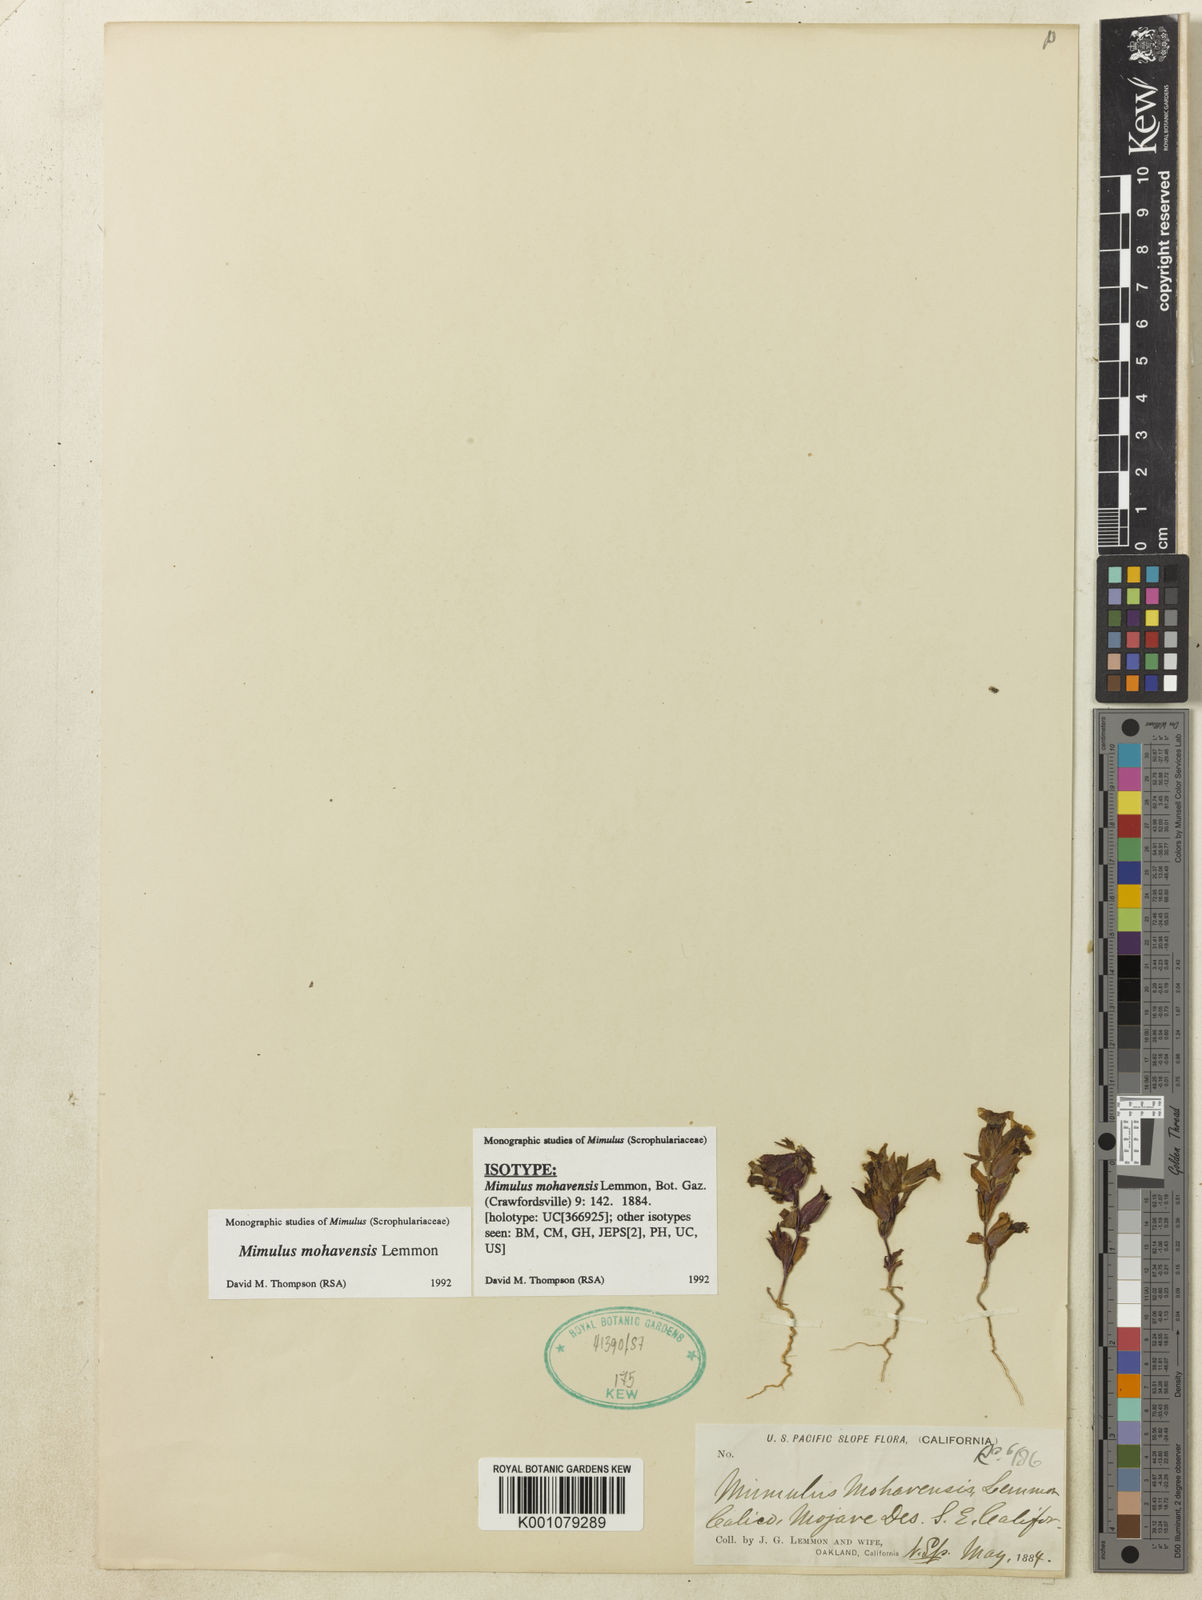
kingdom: Plantae
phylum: Tracheophyta
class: Magnoliopsida
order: Lamiales
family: Phrymaceae
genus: Diplacus
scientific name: Diplacus mohavensis
